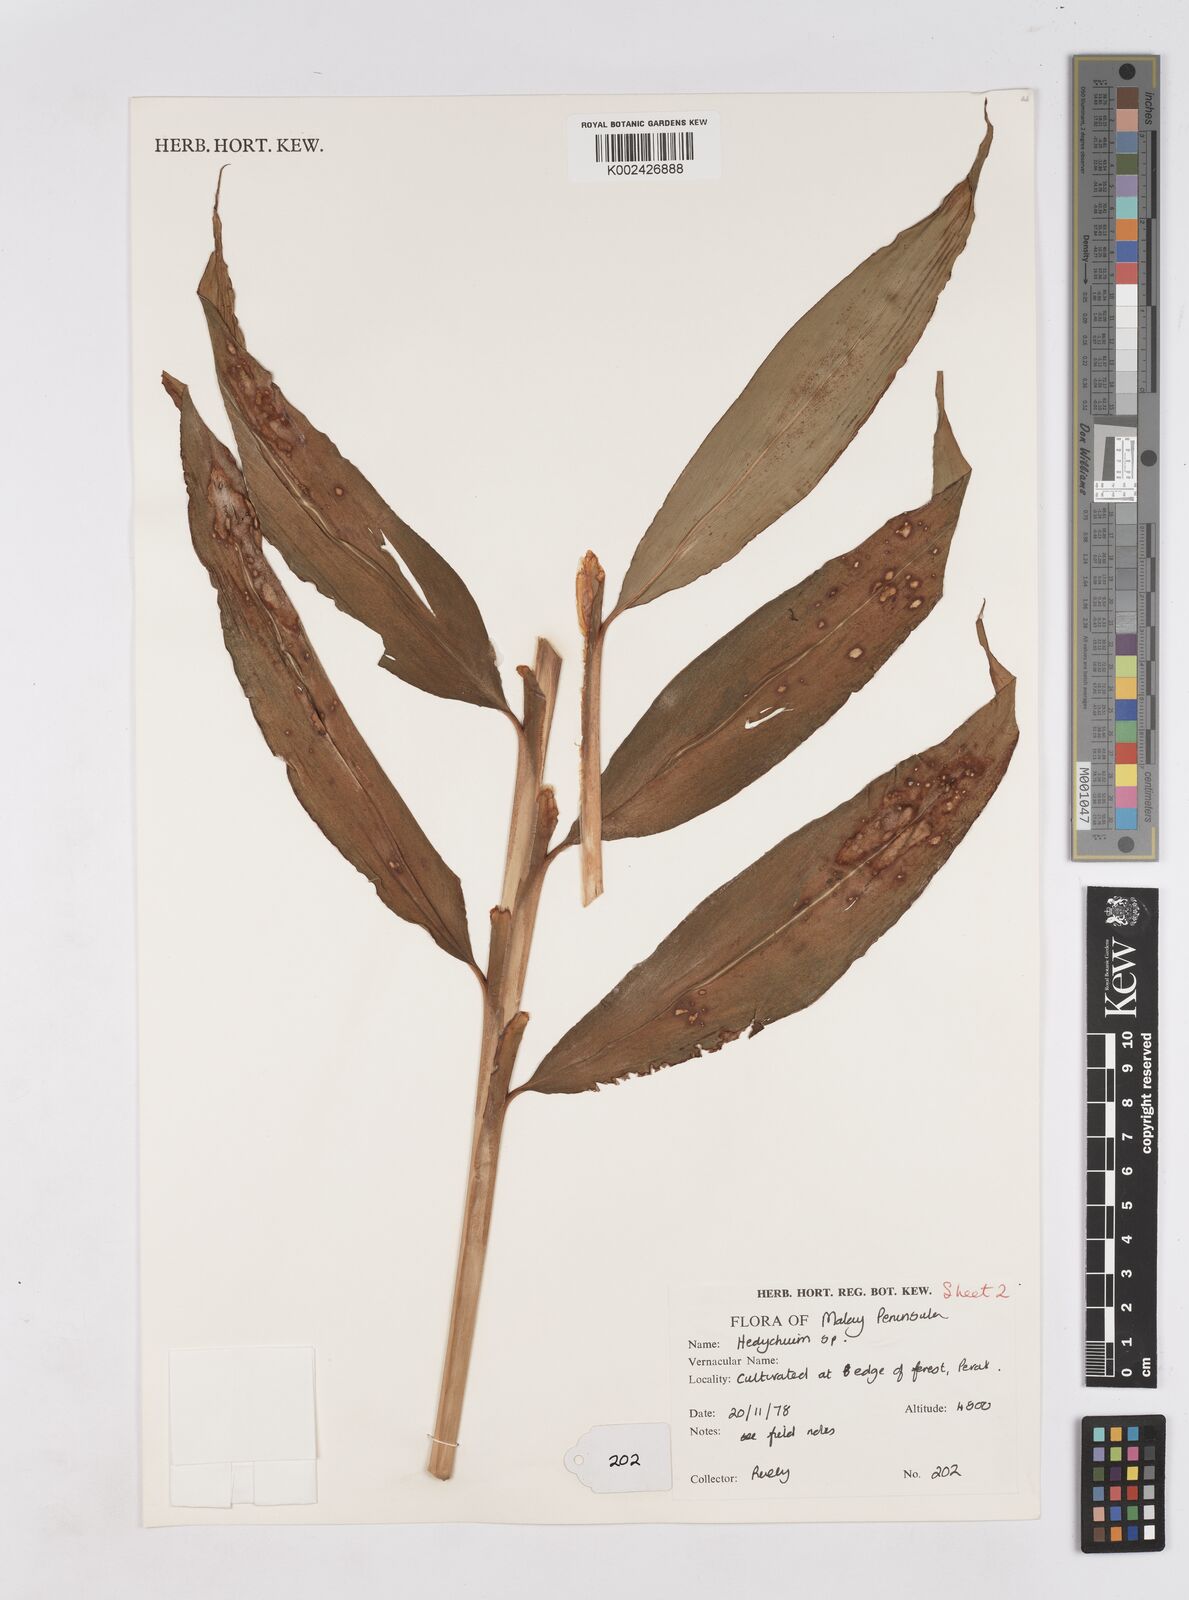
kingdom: Plantae
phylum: Tracheophyta
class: Liliopsida
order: Zingiberales
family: Zingiberaceae
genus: Hedychium
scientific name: Hedychium villosum
